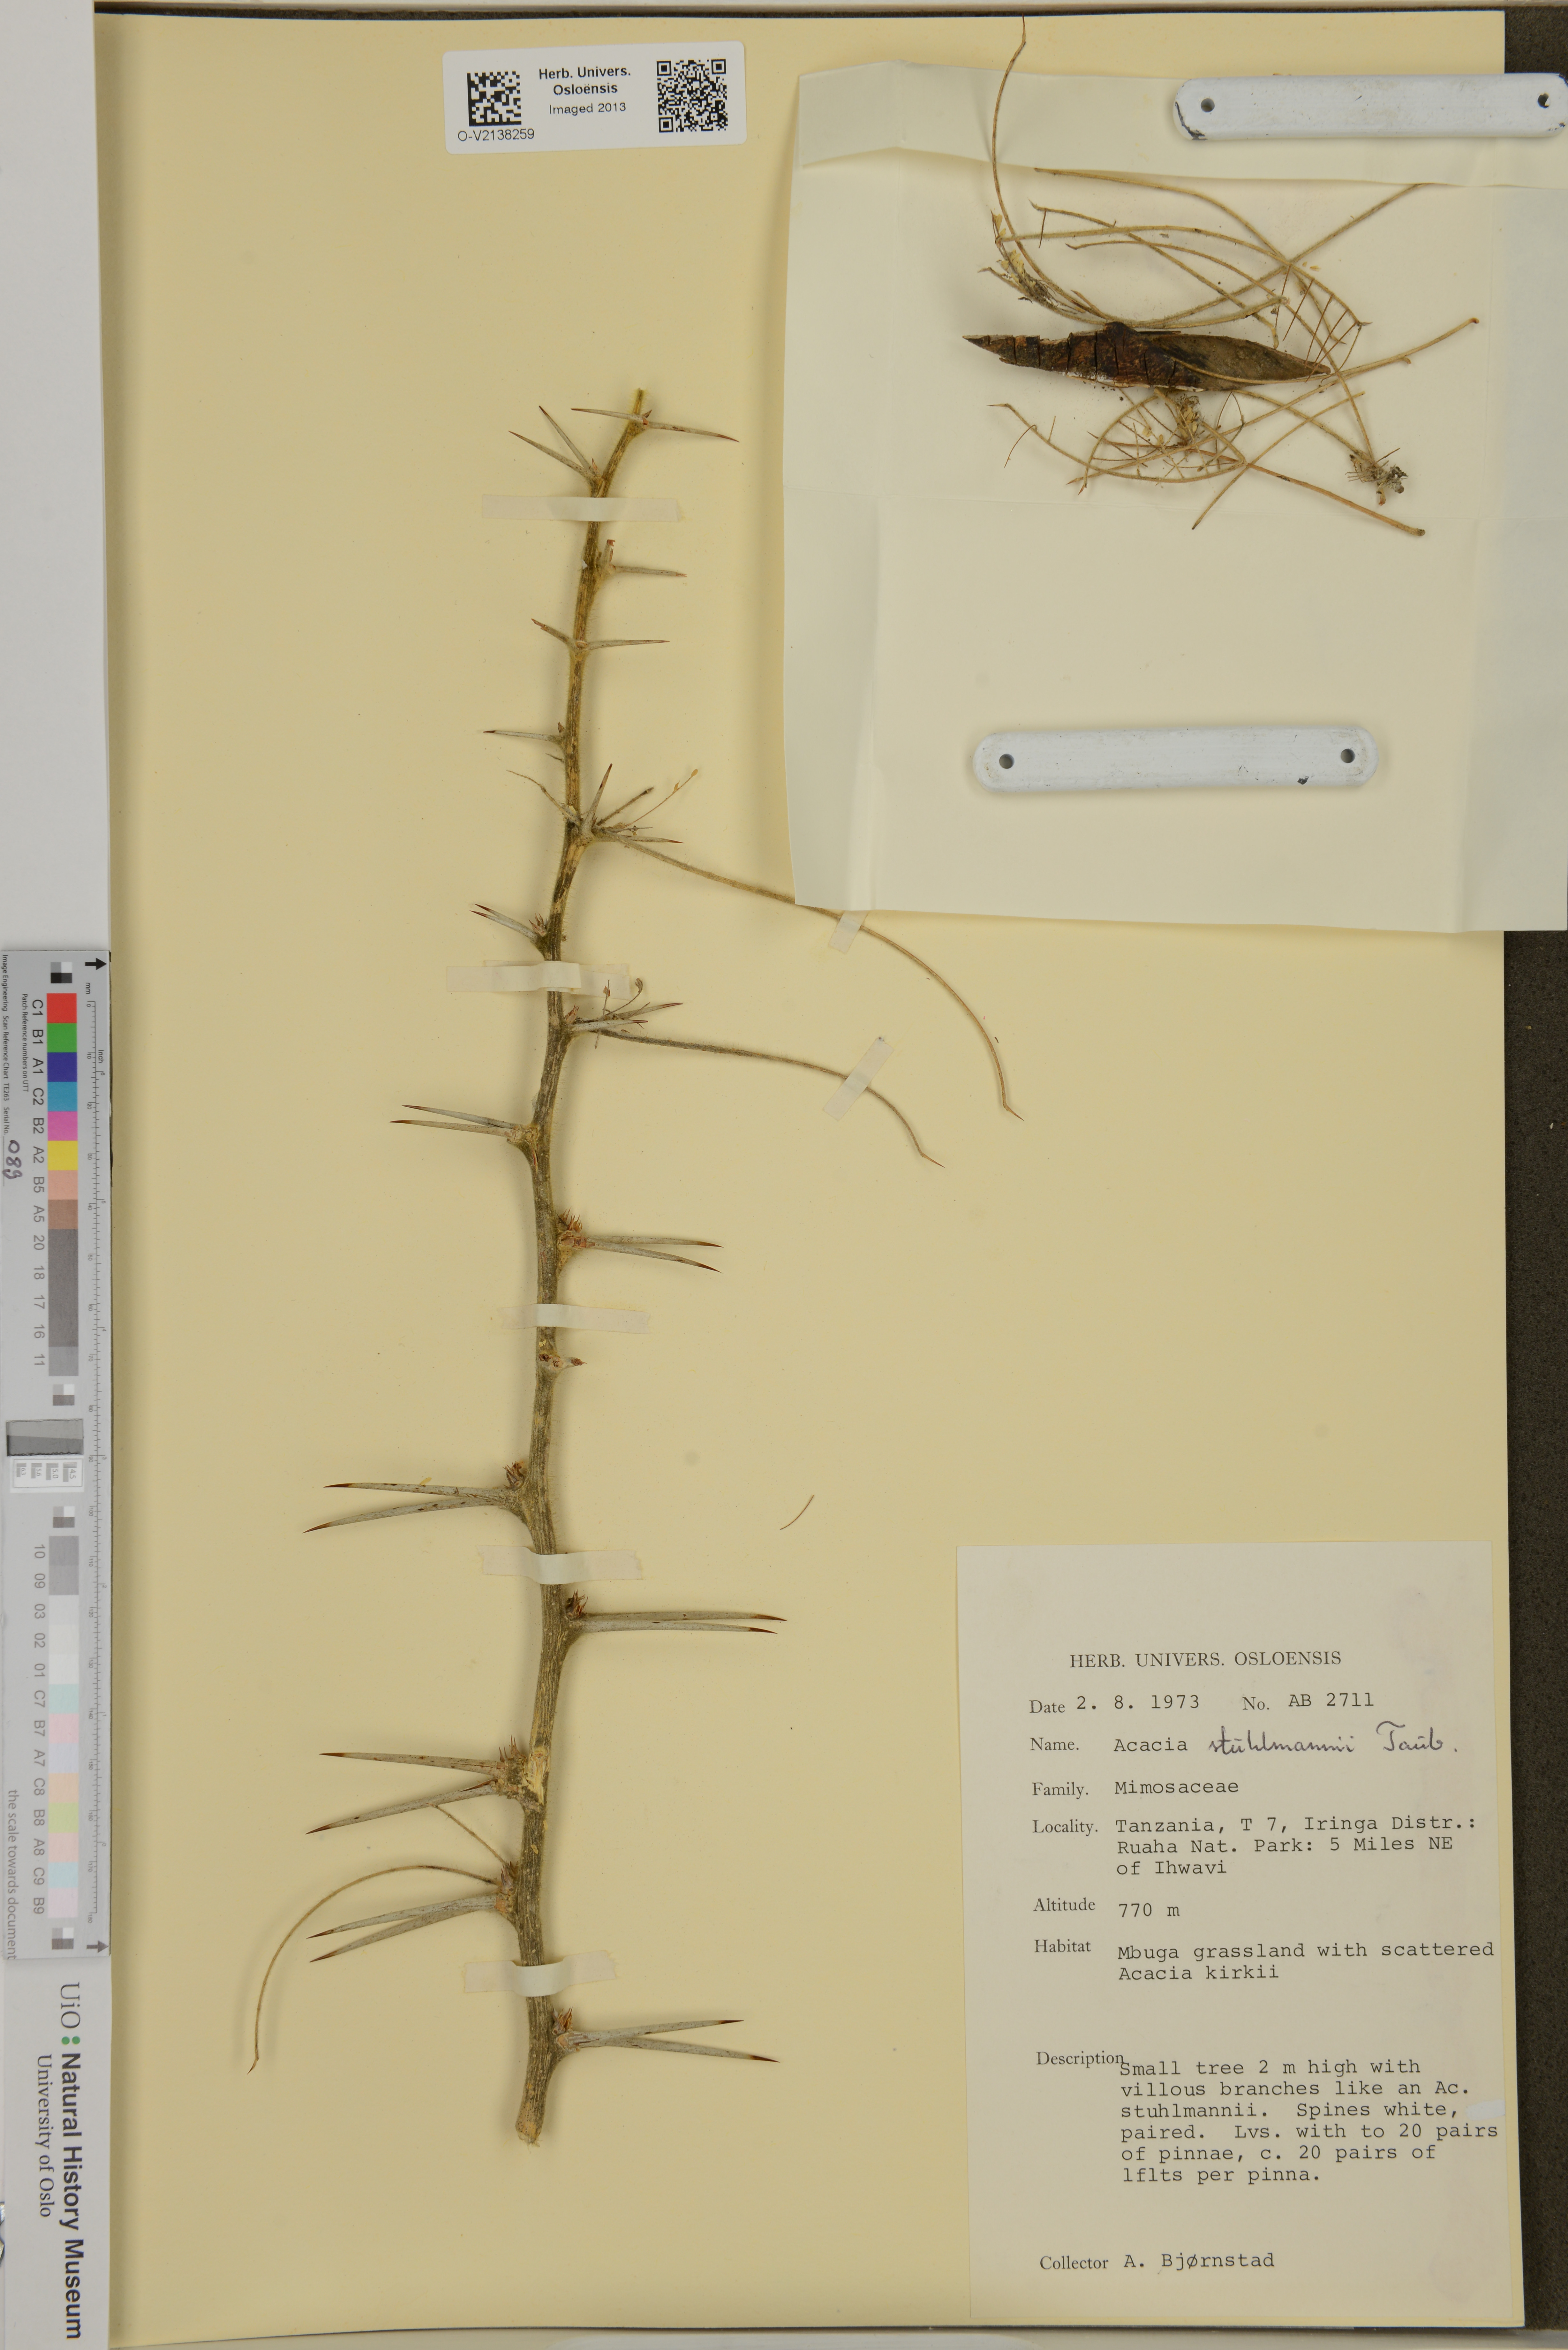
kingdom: Plantae
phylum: Tracheophyta
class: Magnoliopsida
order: Fabales
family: Fabaceae
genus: Vachellia
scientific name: Vachellia stuhlmannii
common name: Vlei thorn
